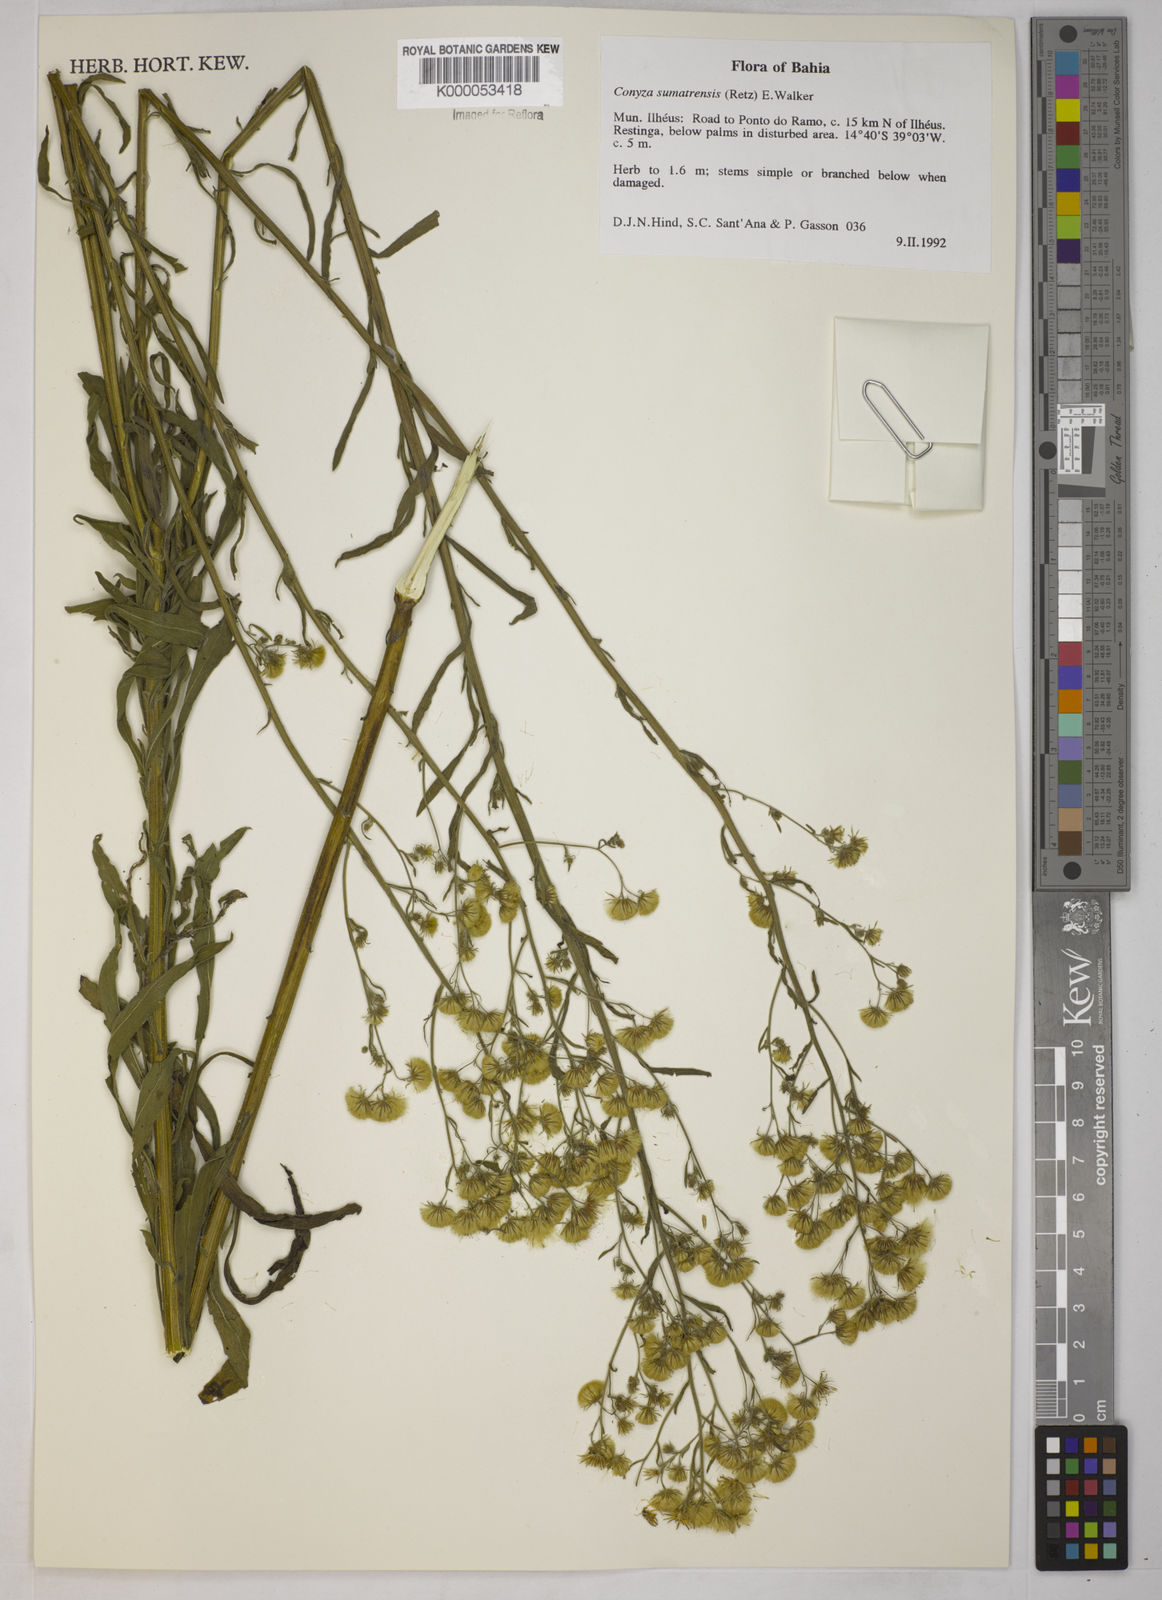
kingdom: Plantae
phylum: Tracheophyta
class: Magnoliopsida
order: Asterales
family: Asteraceae
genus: Erigeron
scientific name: Erigeron sumatrensis
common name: Daisy
